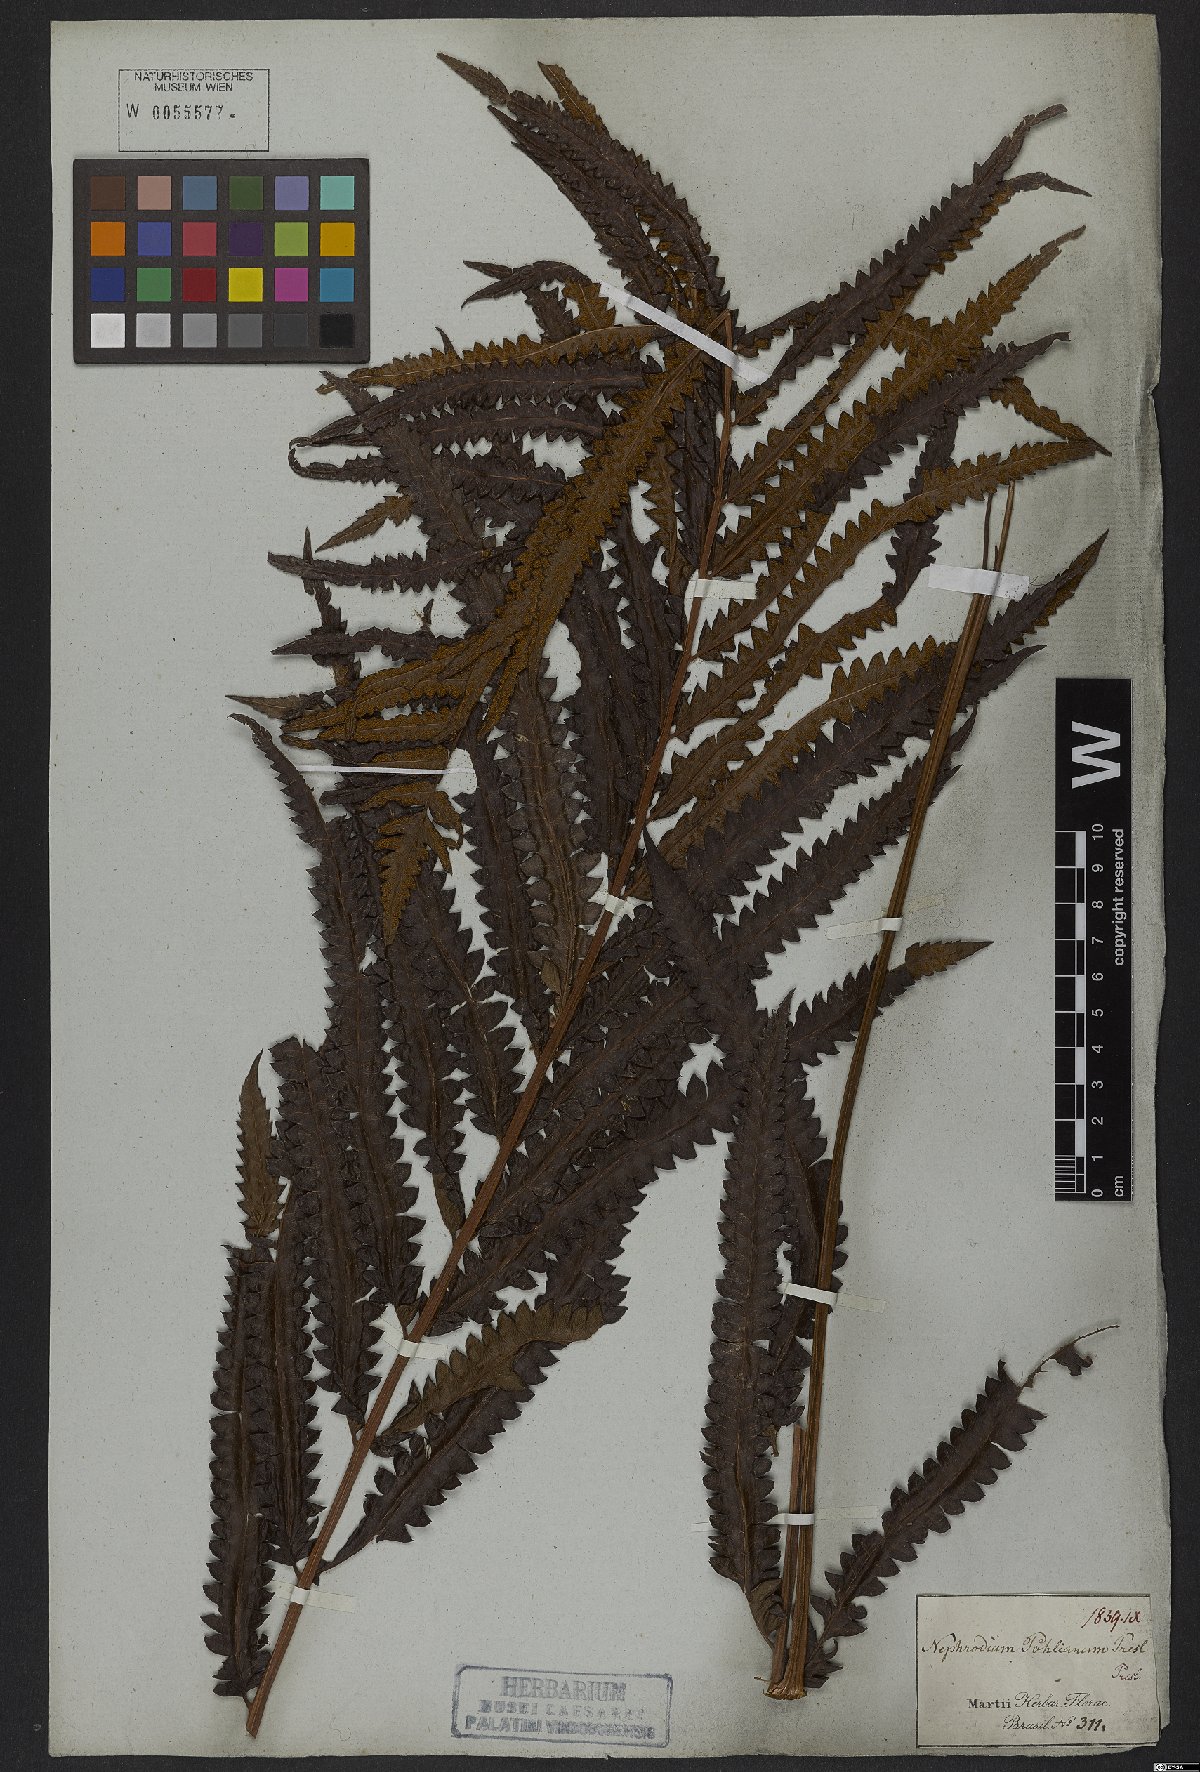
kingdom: Plantae
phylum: Tracheophyta
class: Polypodiopsida
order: Polypodiales
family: Thelypteridaceae
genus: Cyclosorus
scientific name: Cyclosorus interruptus
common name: Neke fern
